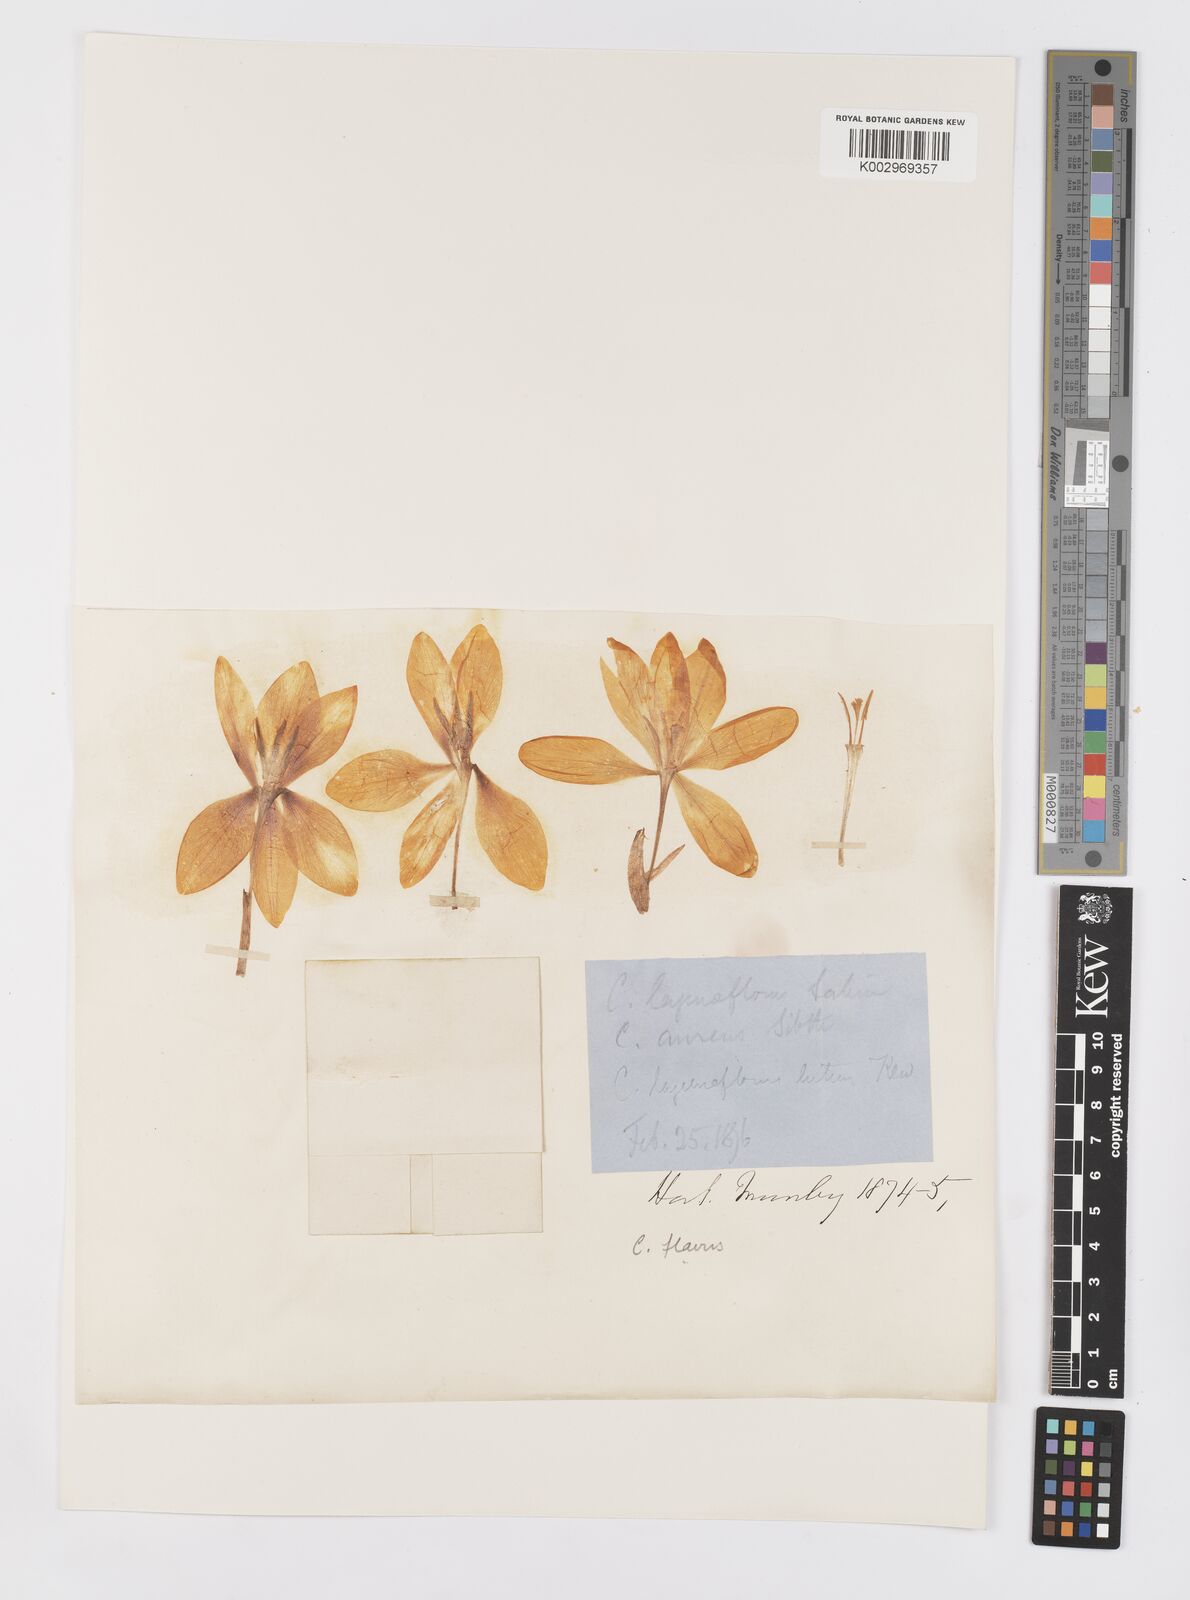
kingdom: Plantae
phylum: Tracheophyta
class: Liliopsida
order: Asparagales
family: Iridaceae
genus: Crocus
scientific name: Crocus flavus
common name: Yellow crocus
